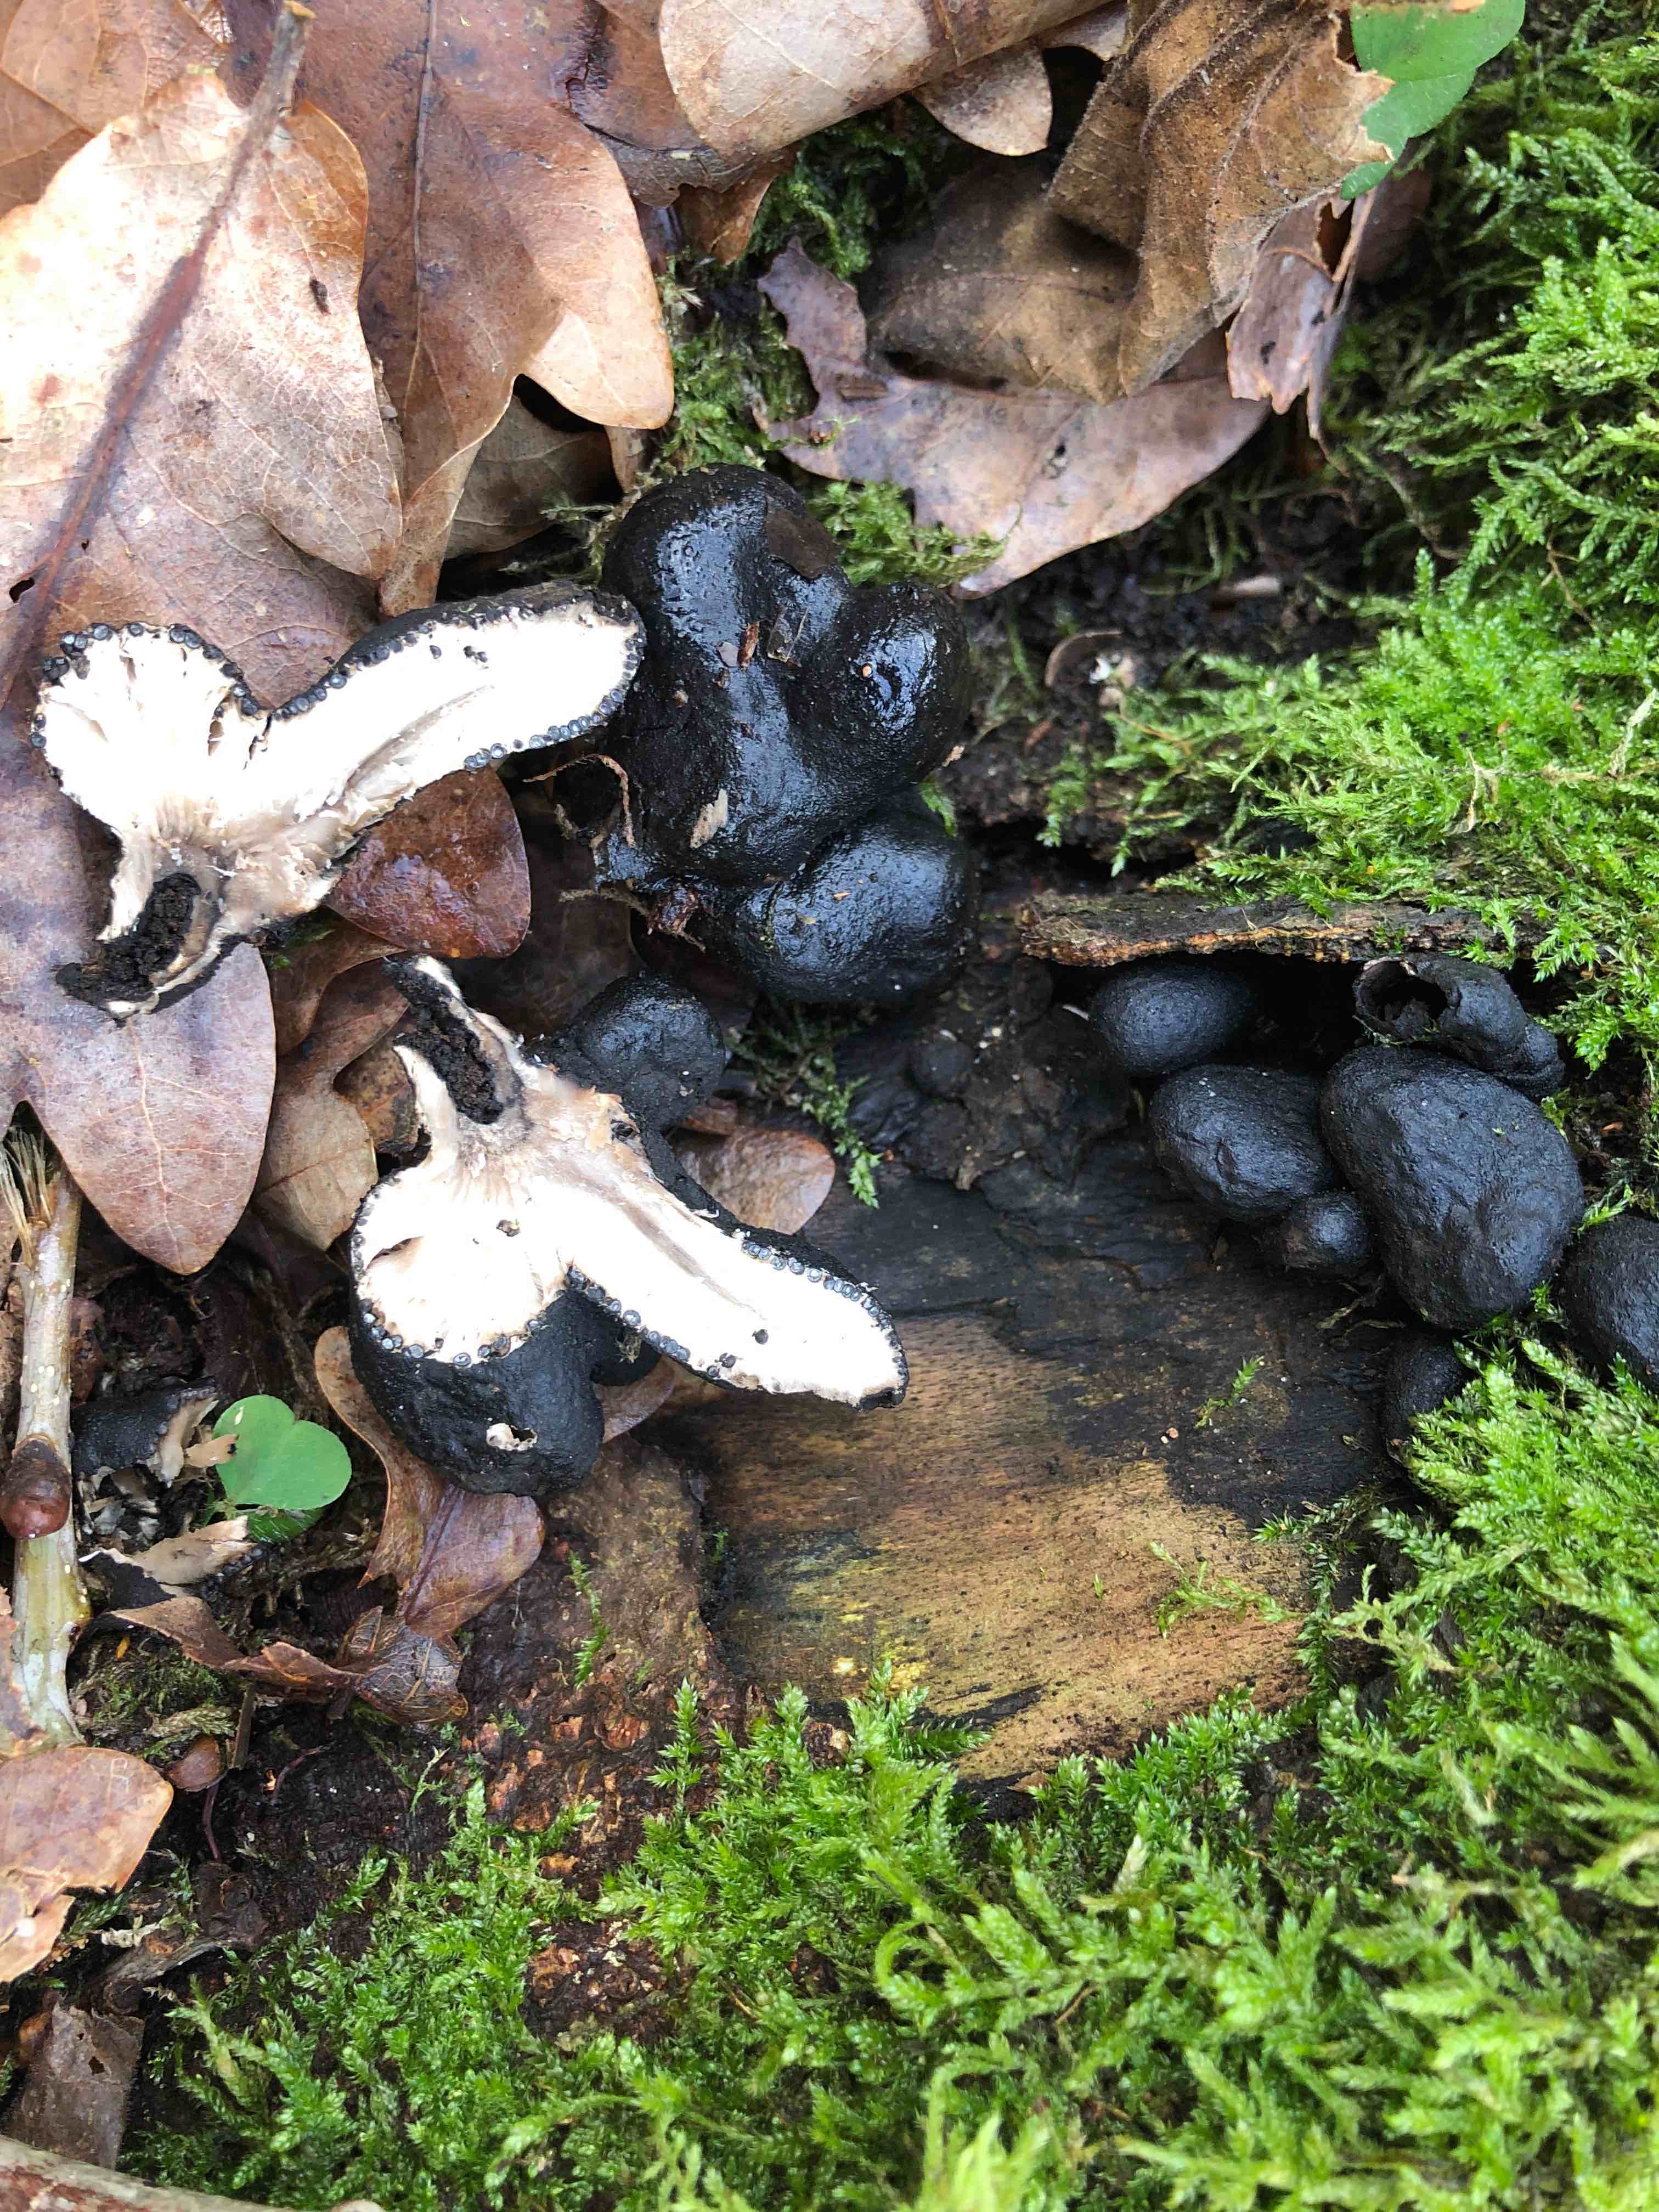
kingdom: Fungi
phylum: Ascomycota
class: Sordariomycetes
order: Xylariales
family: Xylariaceae
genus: Xylaria
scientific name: Xylaria polymorpha
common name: kølle-stødsvamp
